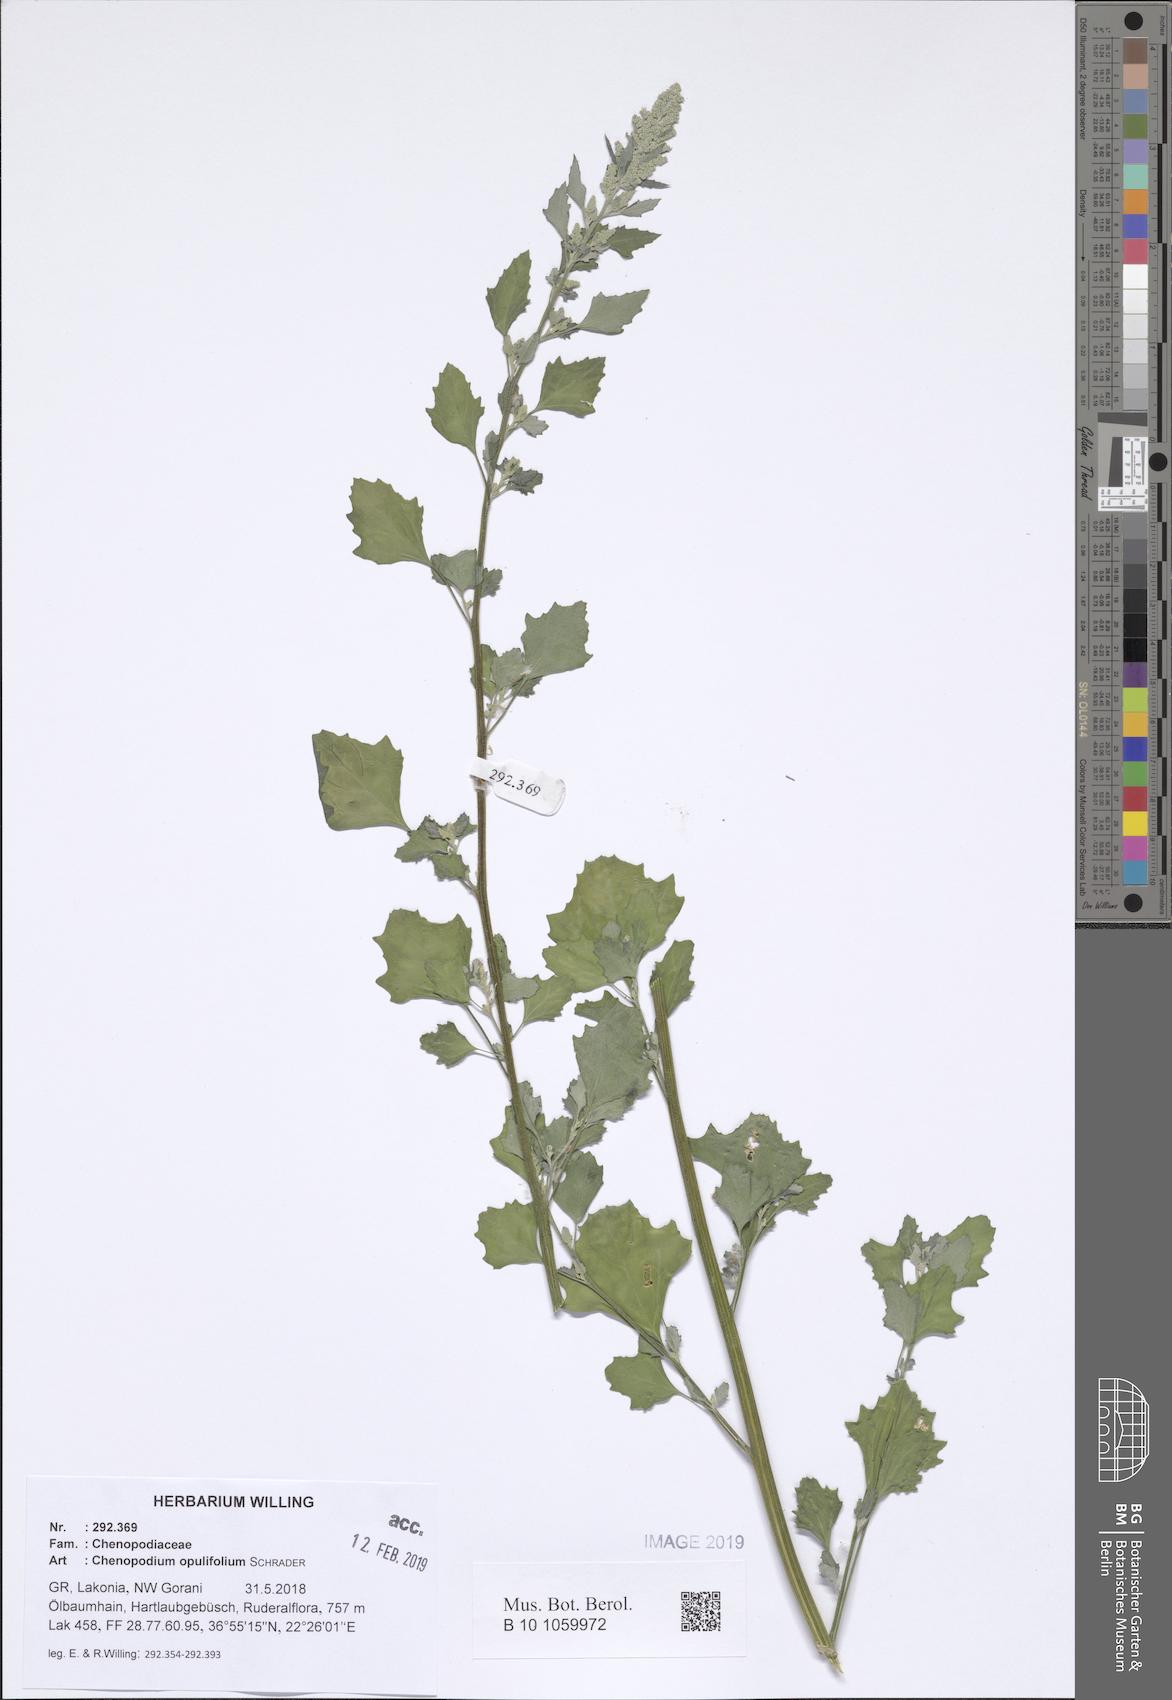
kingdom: Plantae
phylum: Tracheophyta
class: Magnoliopsida
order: Caryophyllales
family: Amaranthaceae
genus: Chenopodium
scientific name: Chenopodium album
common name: Fat-hen
